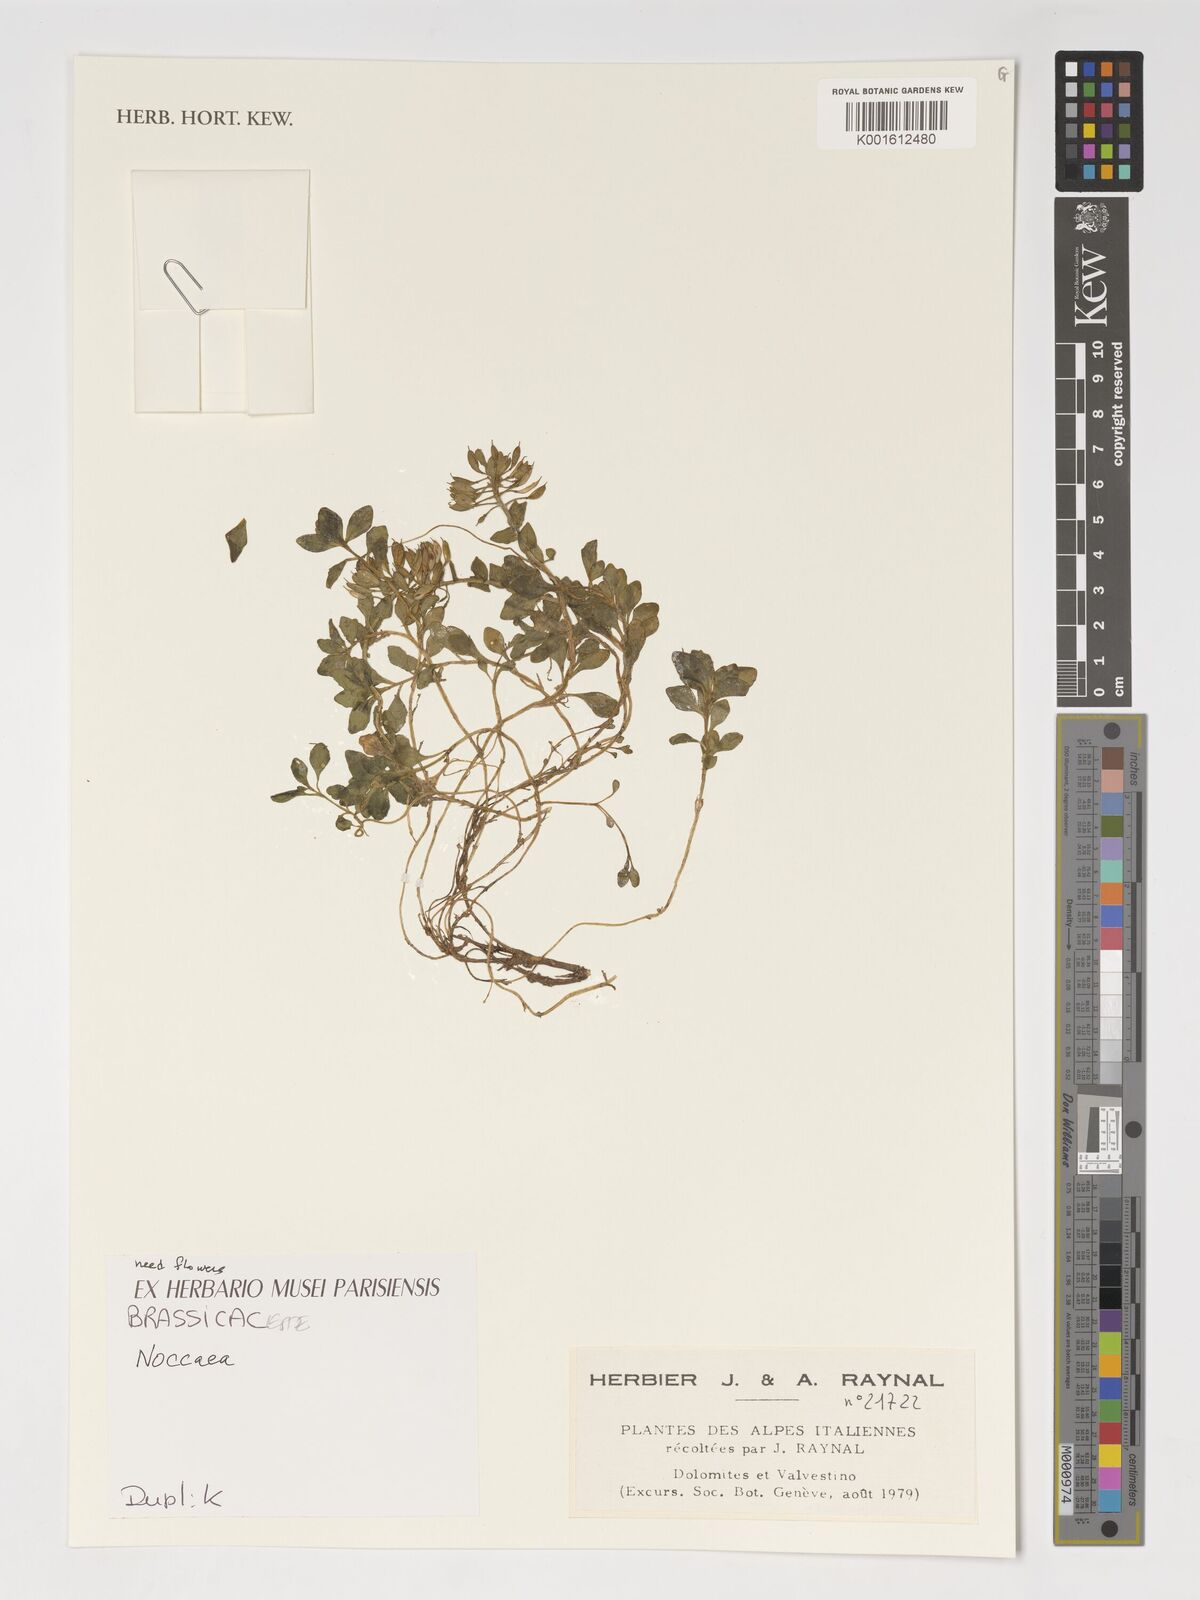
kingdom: Plantae
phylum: Tracheophyta
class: Magnoliopsida
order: Brassicales
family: Brassicaceae
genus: Noccaea
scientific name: Noccaea
